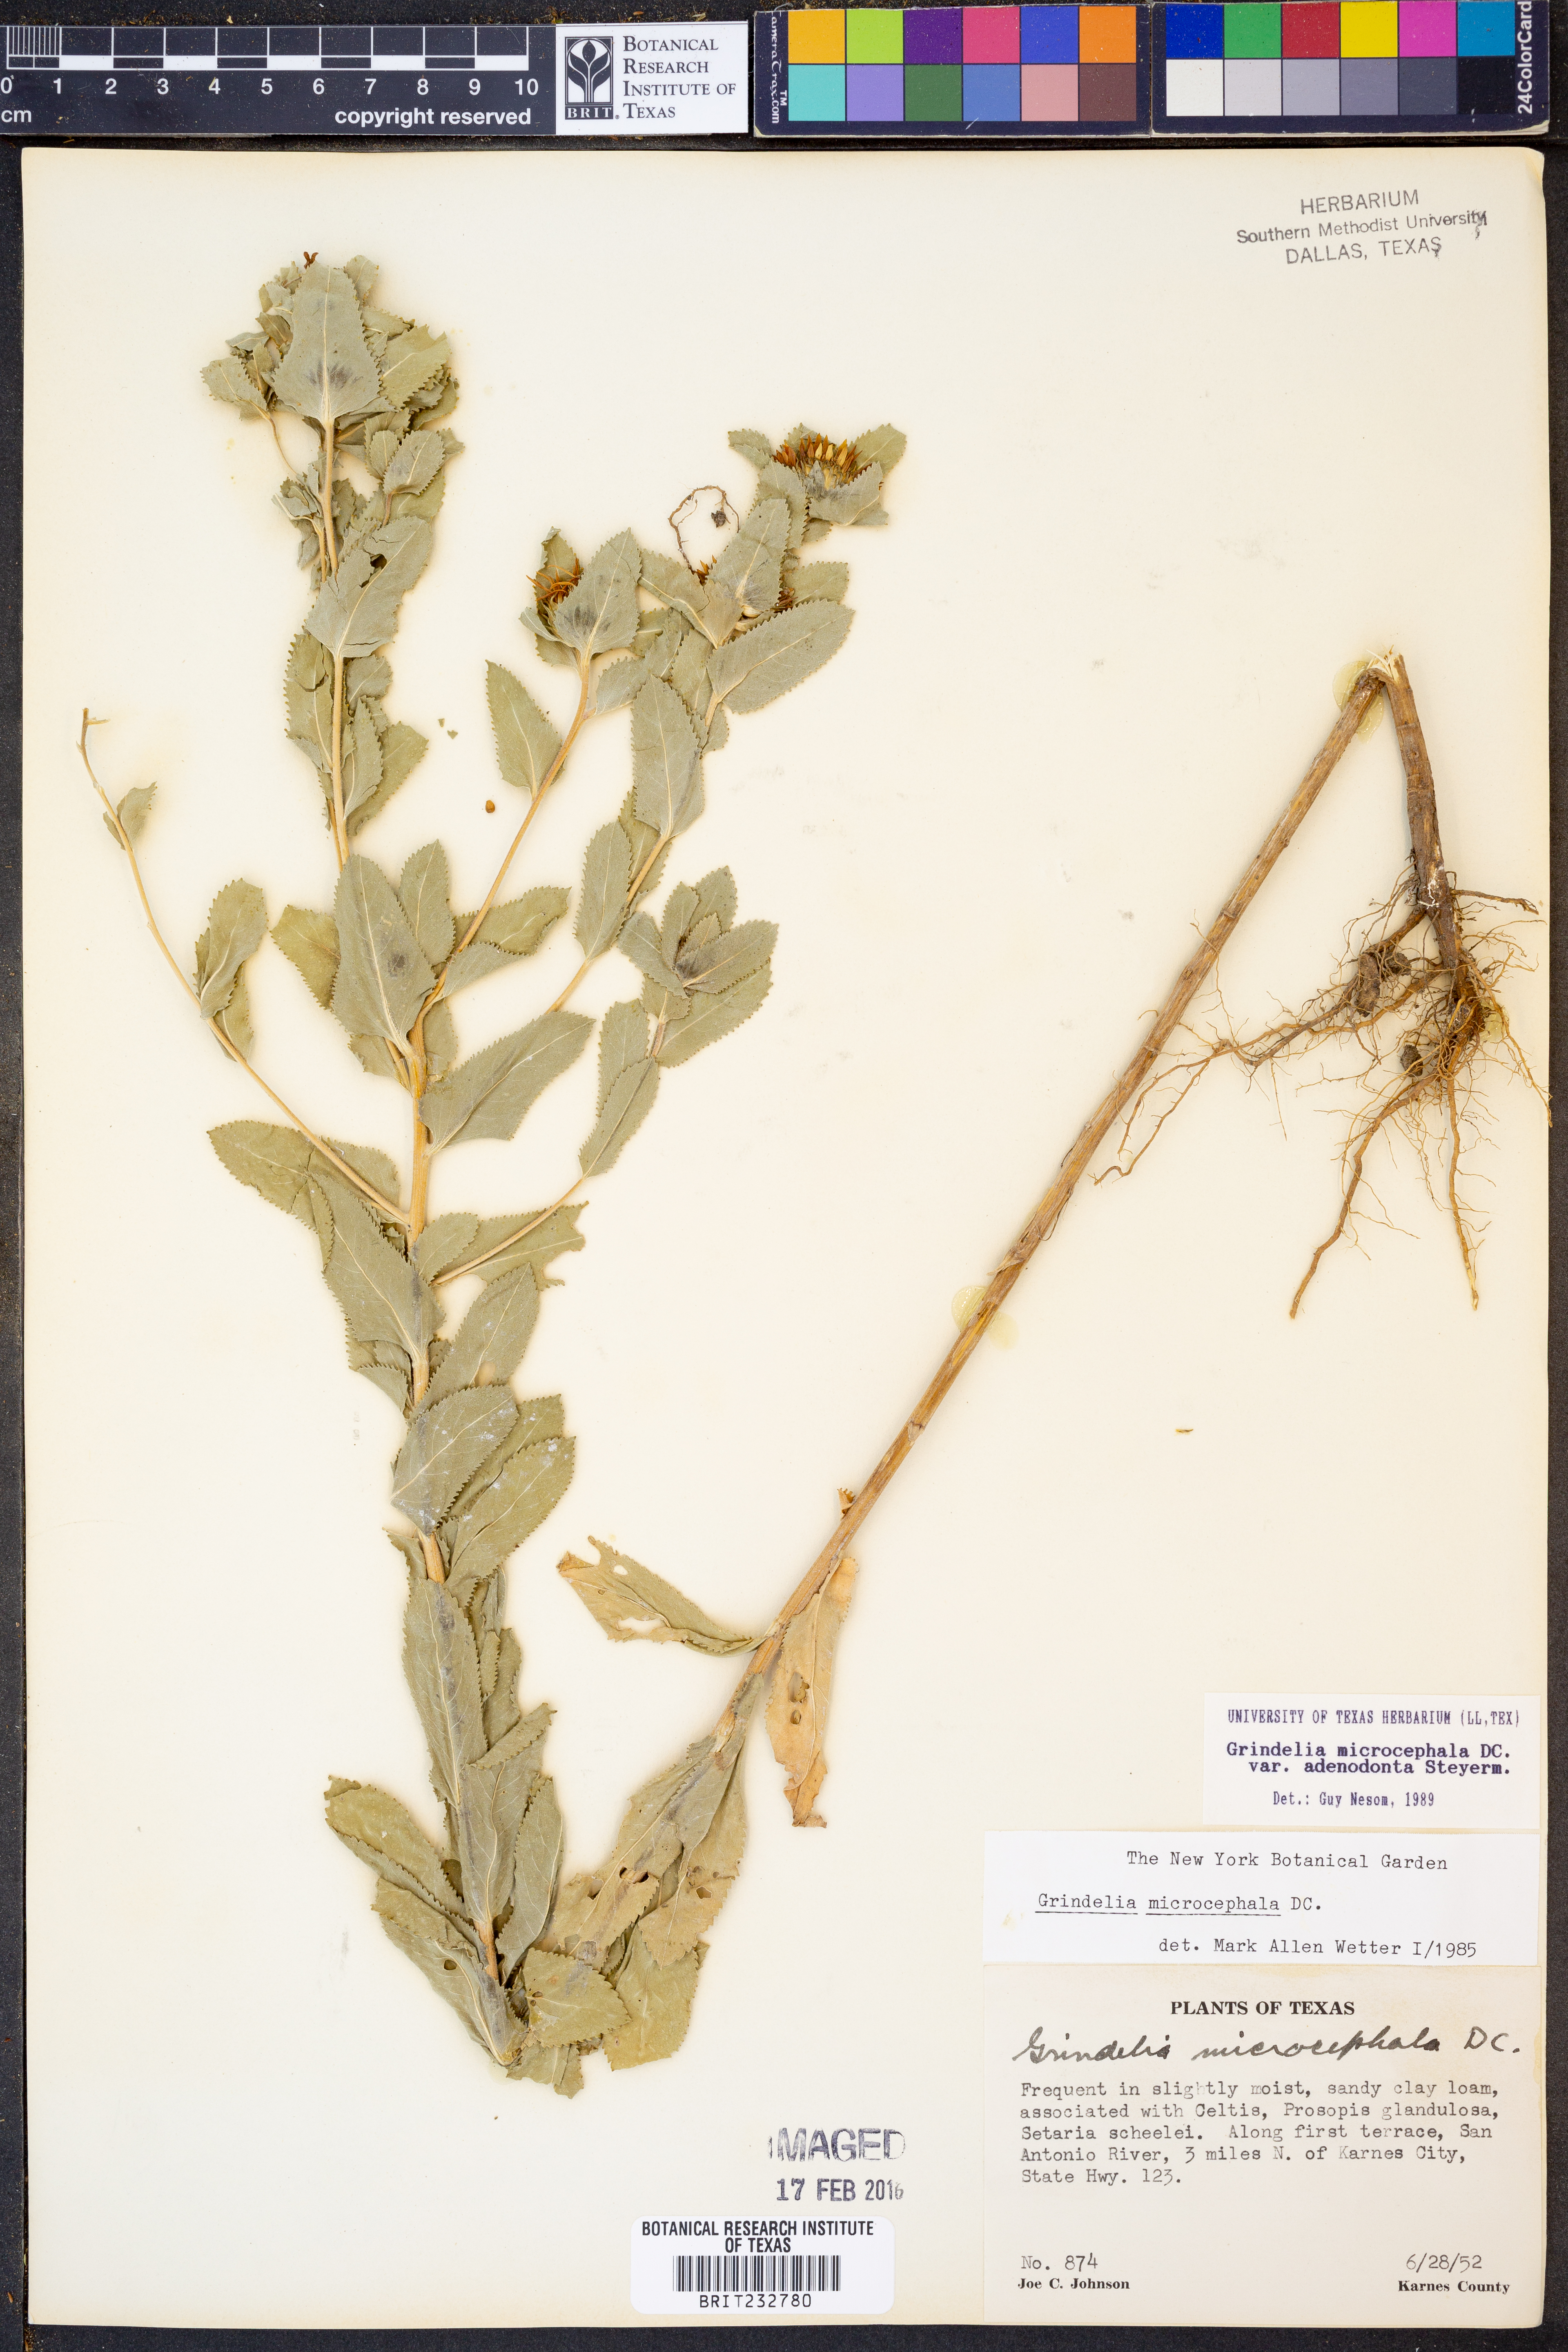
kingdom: Plantae
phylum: Tracheophyta
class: Magnoliopsida
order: Asterales
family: Asteraceae
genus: Grindelia
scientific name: Grindelia adenodonta
